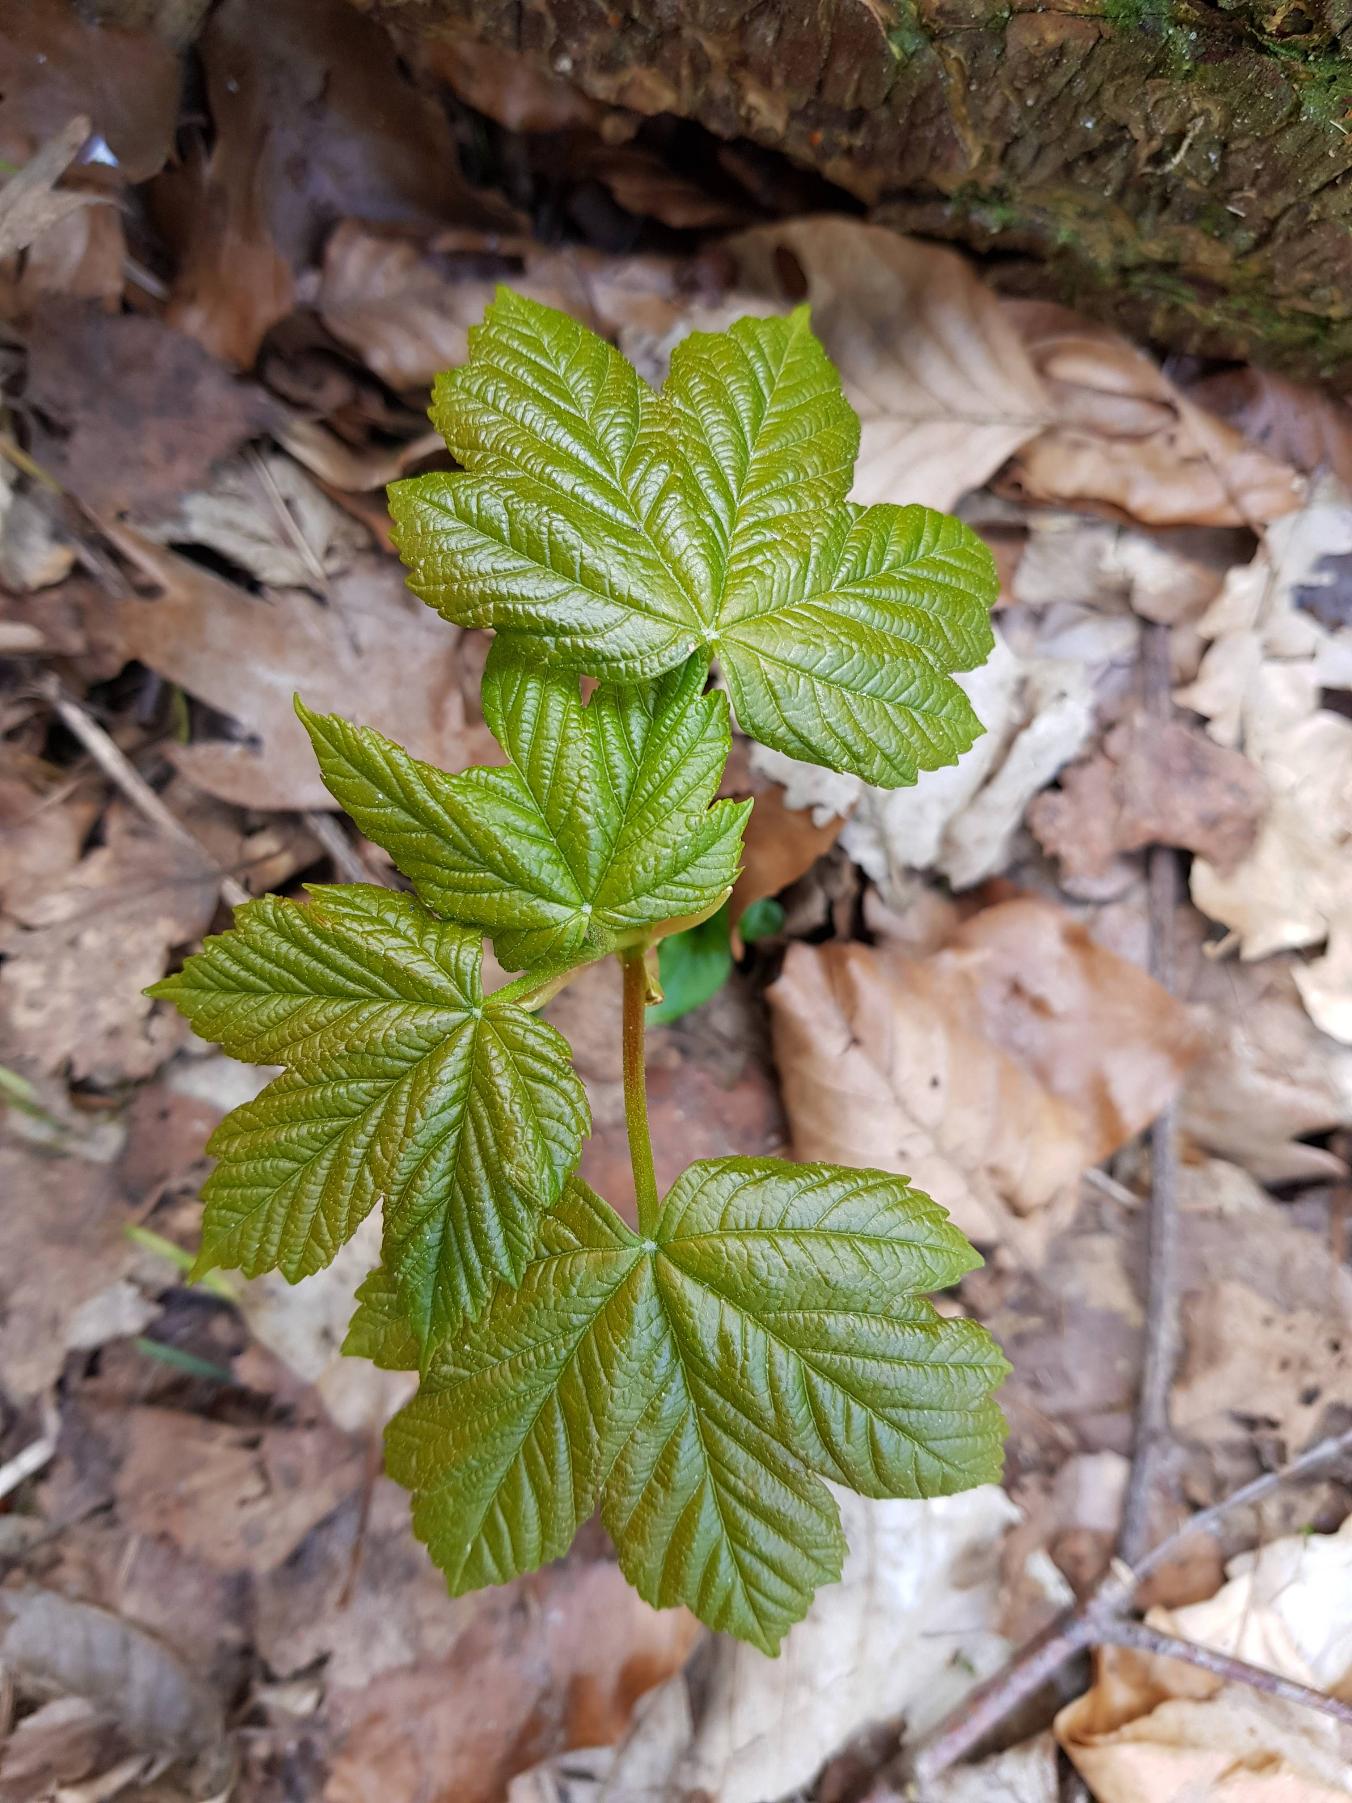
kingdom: Plantae
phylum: Tracheophyta
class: Magnoliopsida
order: Sapindales
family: Sapindaceae
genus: Acer
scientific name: Acer pseudoplatanus
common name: Ahorn
